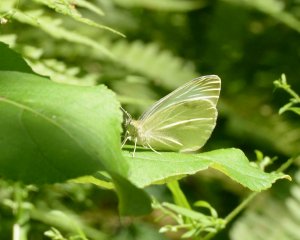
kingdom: Animalia
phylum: Arthropoda
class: Insecta
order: Lepidoptera
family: Pieridae
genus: Pieris
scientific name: Pieris rapae
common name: Cabbage White
